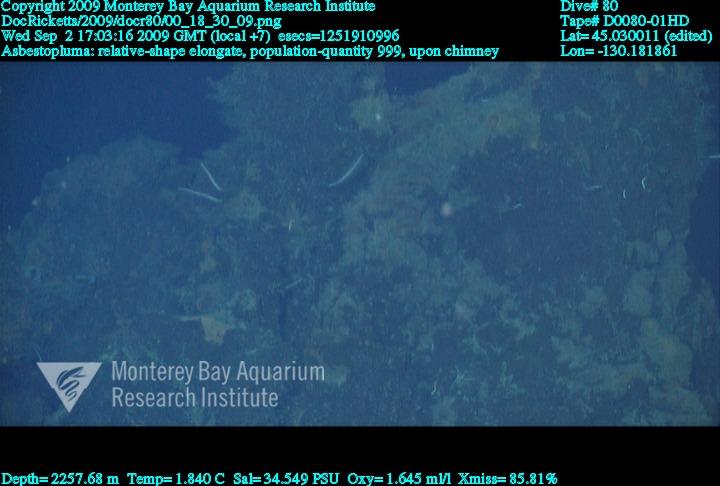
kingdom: Animalia
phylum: Porifera
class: Demospongiae
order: Poecilosclerida
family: Cladorhizidae
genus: Asbestopluma
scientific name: Asbestopluma
